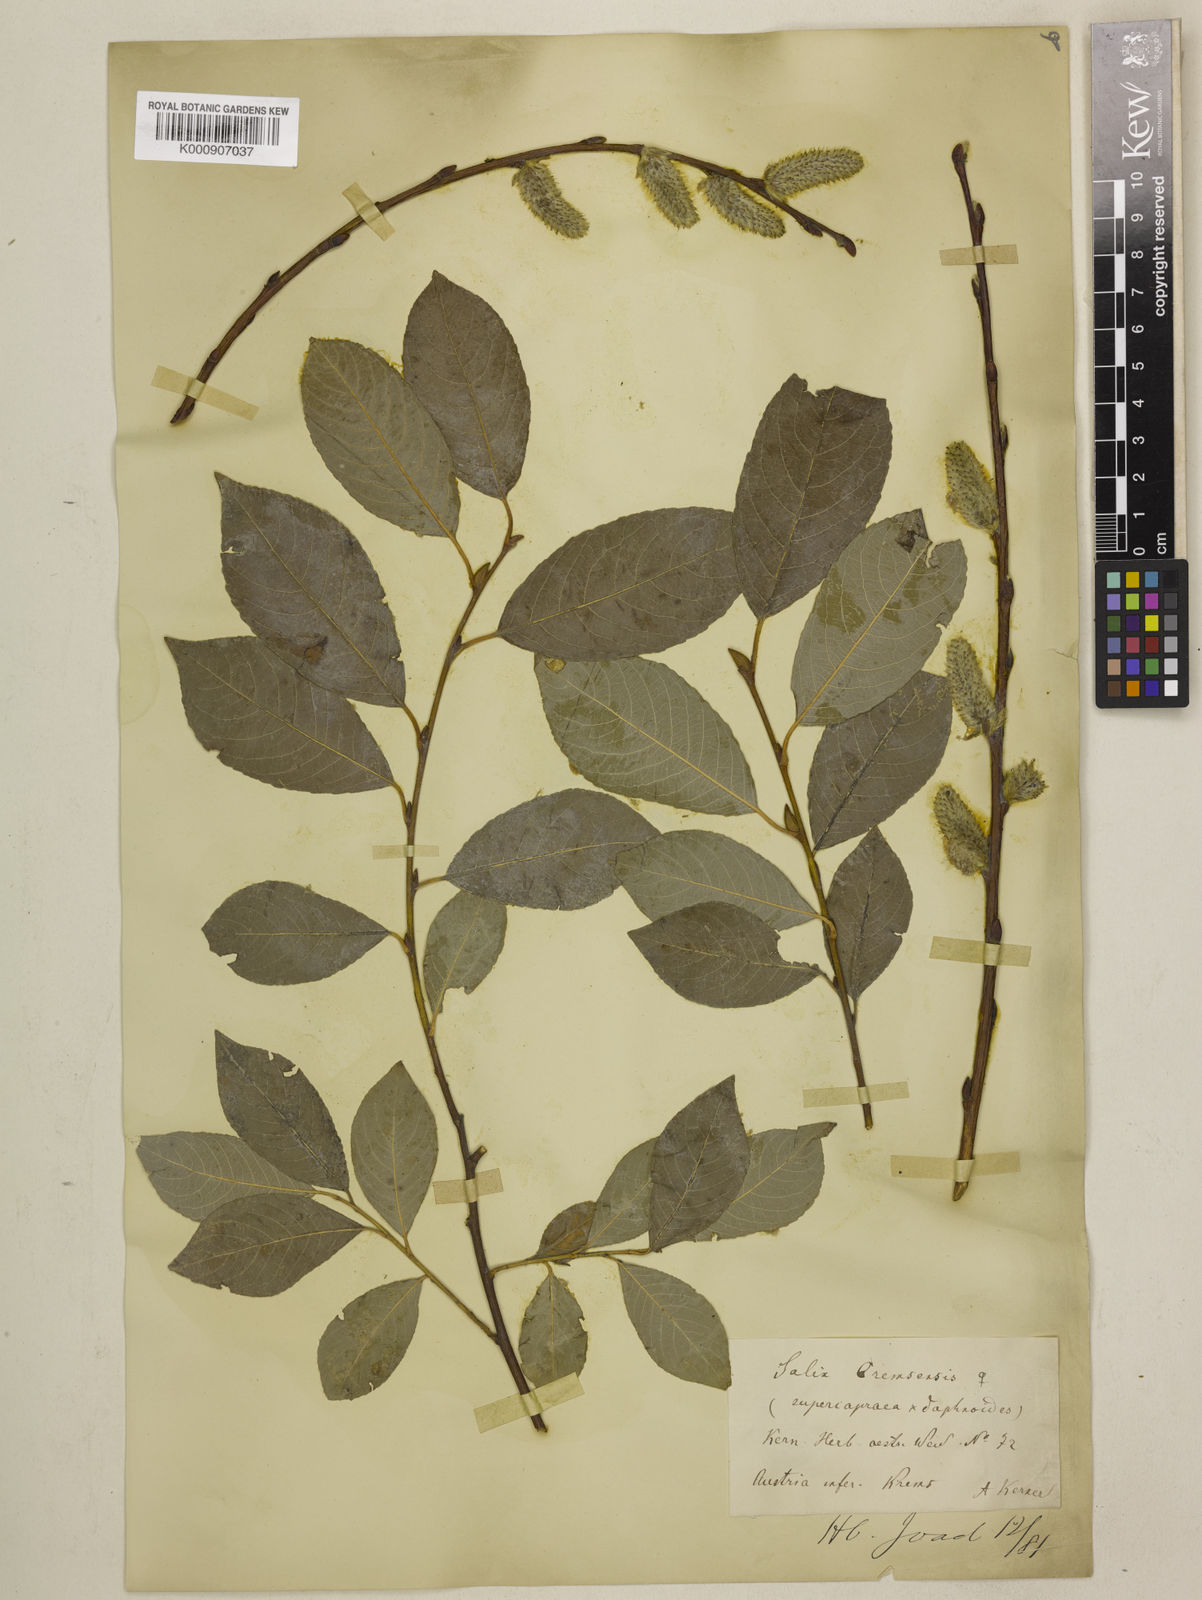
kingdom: Plantae
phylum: Tracheophyta
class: Magnoliopsida
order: Malpighiales
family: Salicaceae
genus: Salix
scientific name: Salix caprea
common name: Goat willow
